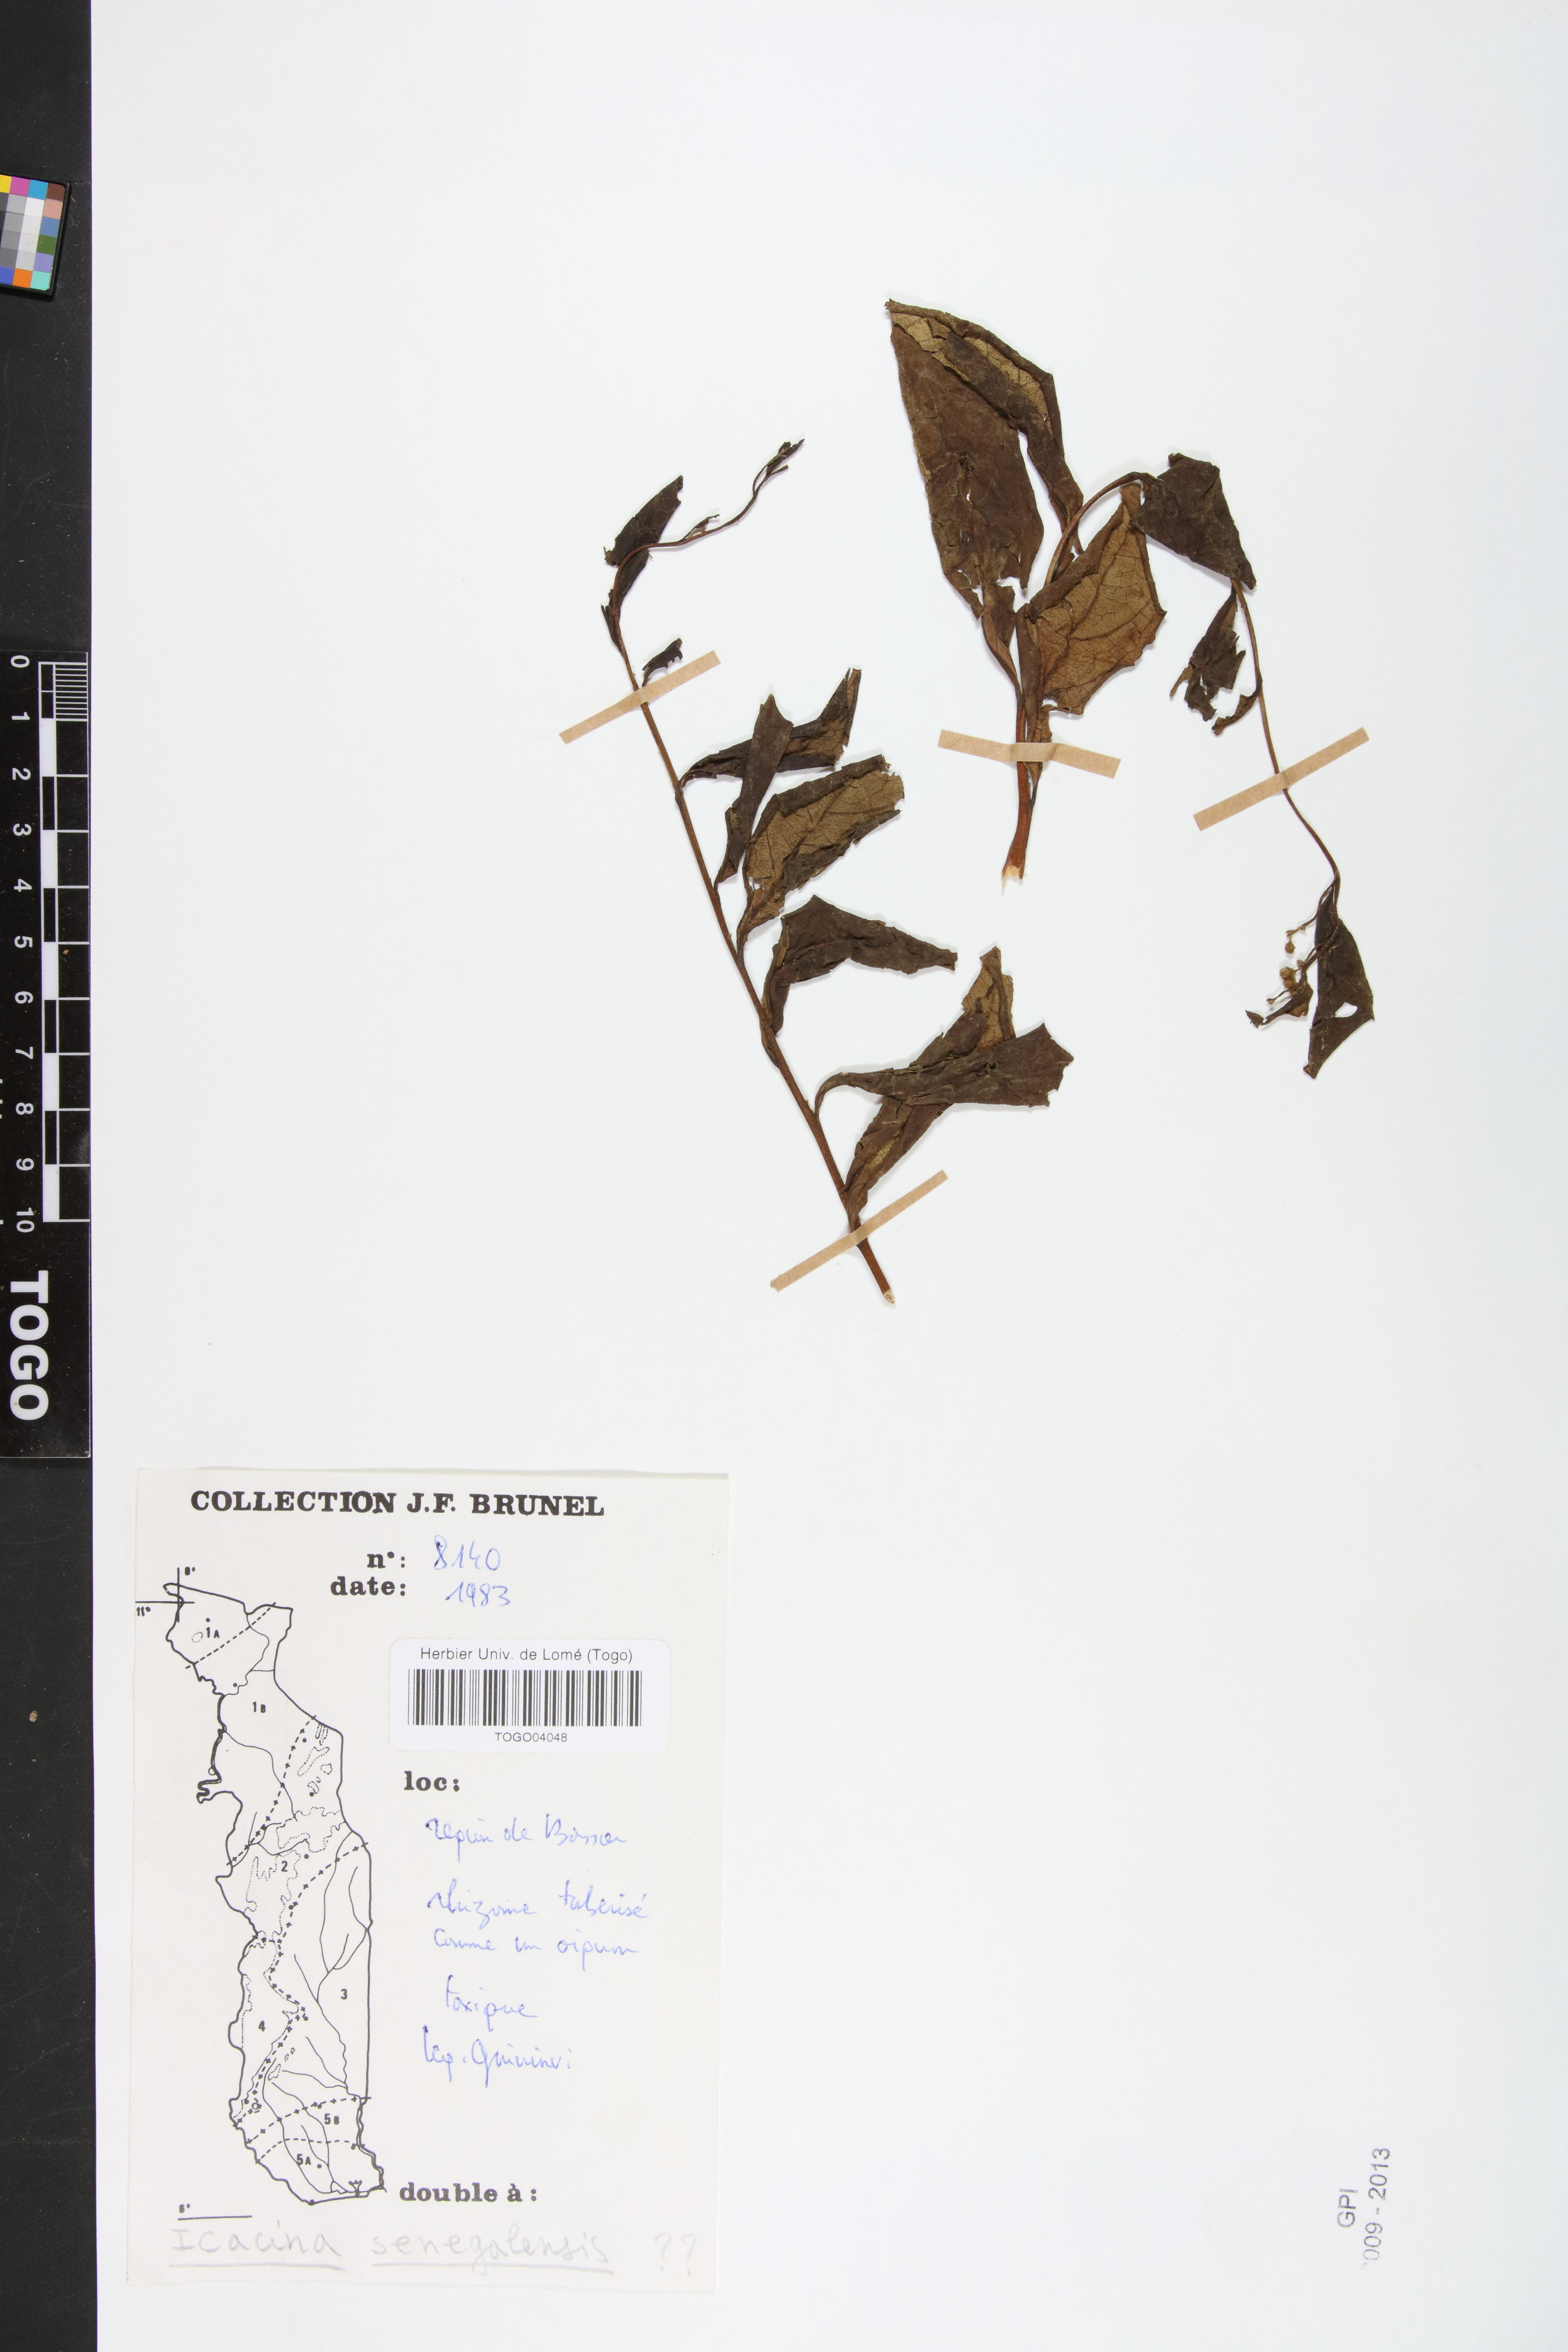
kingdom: Plantae
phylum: Tracheophyta
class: Magnoliopsida
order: Icacinales
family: Icacinaceae
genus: Icacina
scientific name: Icacina oliviformis
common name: False yam
